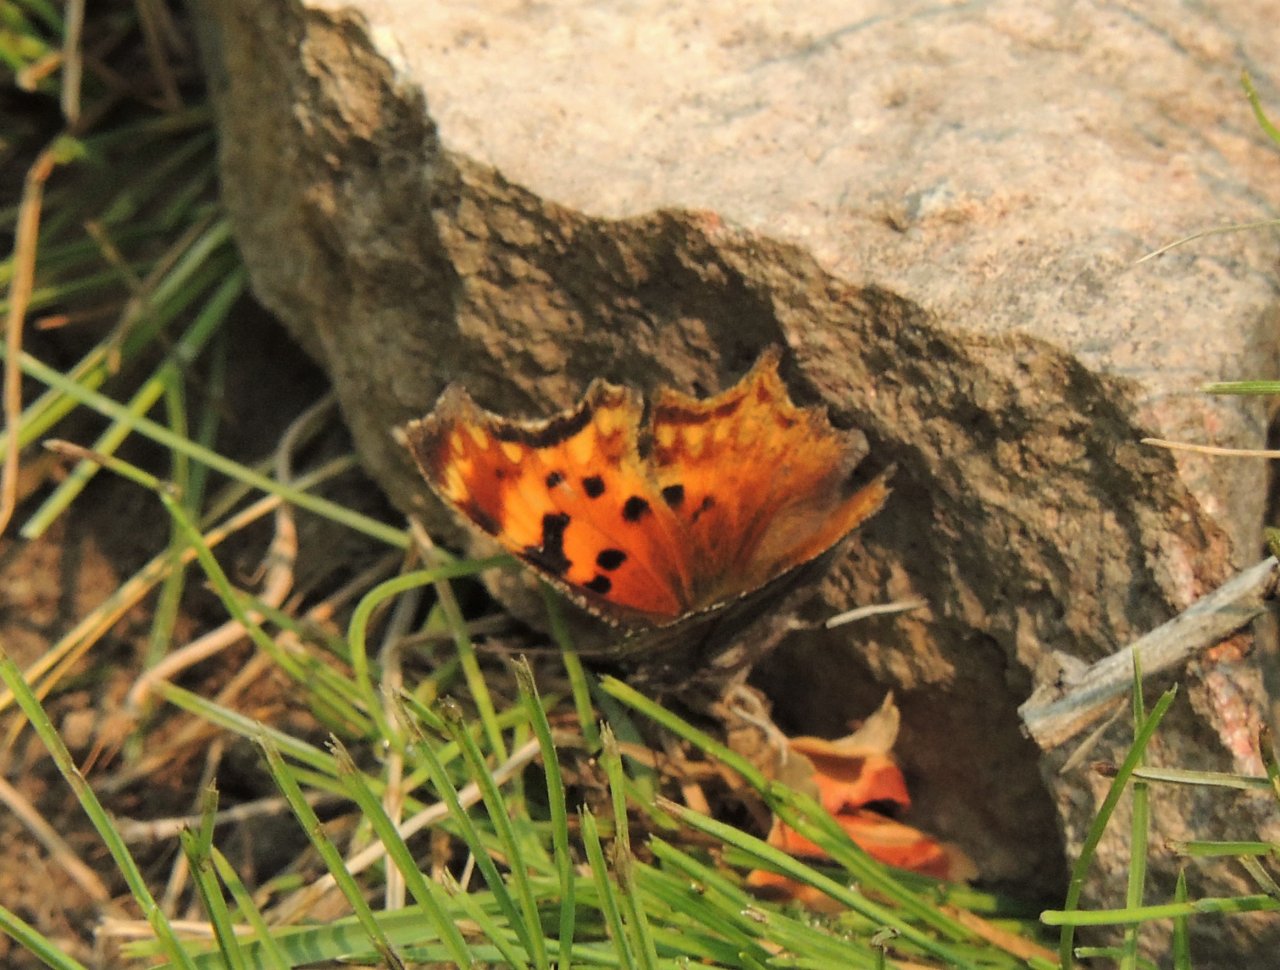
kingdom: Animalia
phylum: Arthropoda
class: Insecta
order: Lepidoptera
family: Nymphalidae
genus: Polygonia
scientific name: Polygonia gracilis
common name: Hoary Comma
